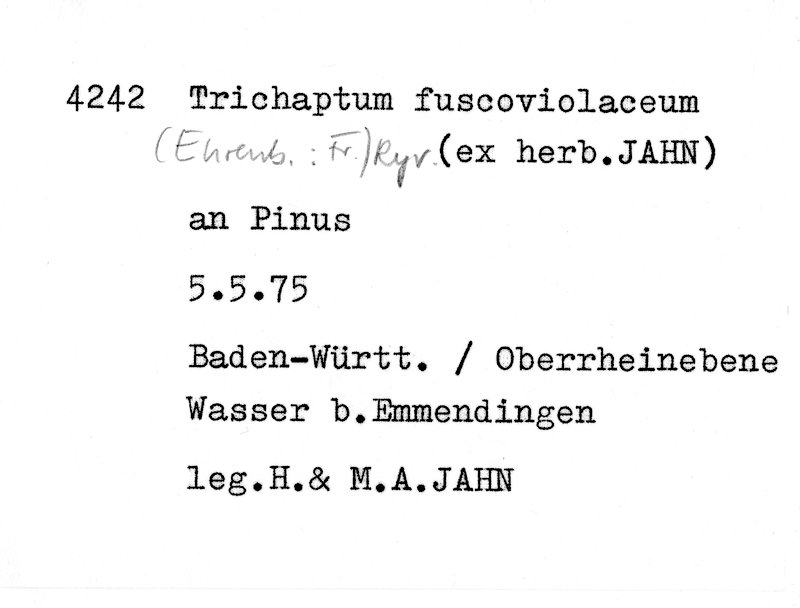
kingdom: Plantae
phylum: Tracheophyta
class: Pinopsida
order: Pinales
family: Pinaceae
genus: Pinus
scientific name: Pinus
